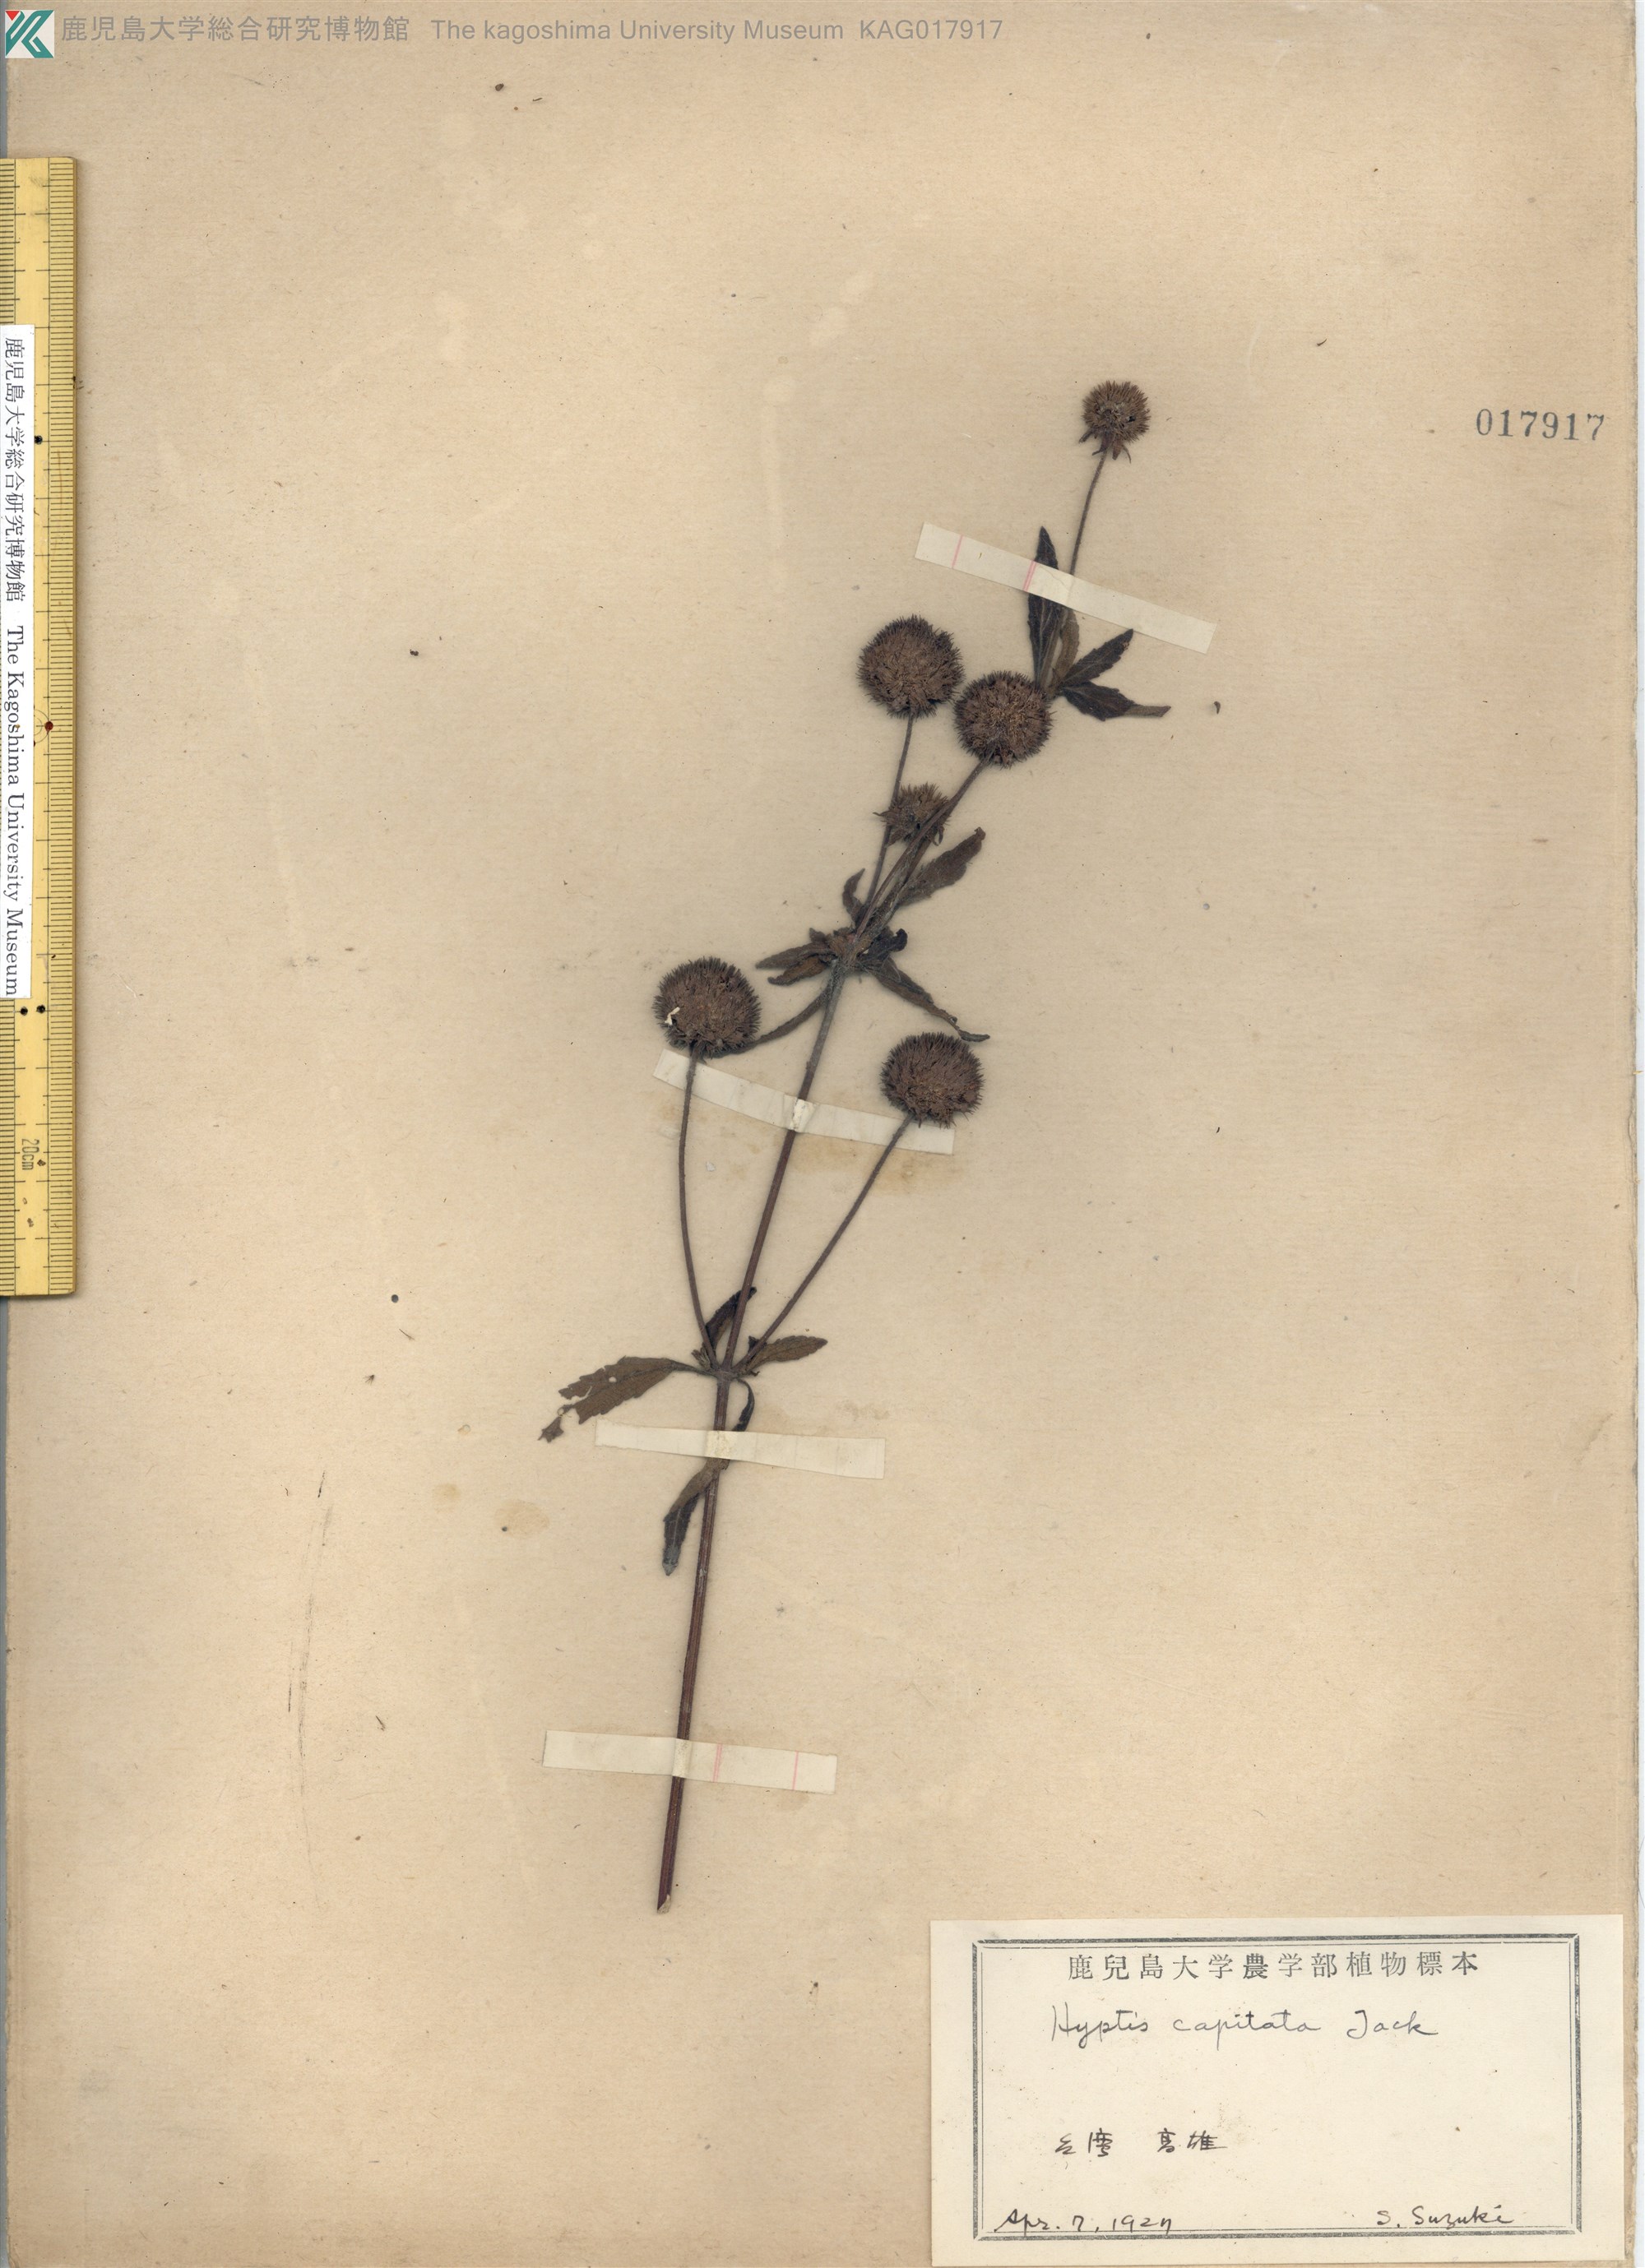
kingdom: Plantae
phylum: Tracheophyta
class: Magnoliopsida
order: Lamiales
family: Lamiaceae
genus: Hyptis
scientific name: Hyptis capitata
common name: False ironwort
